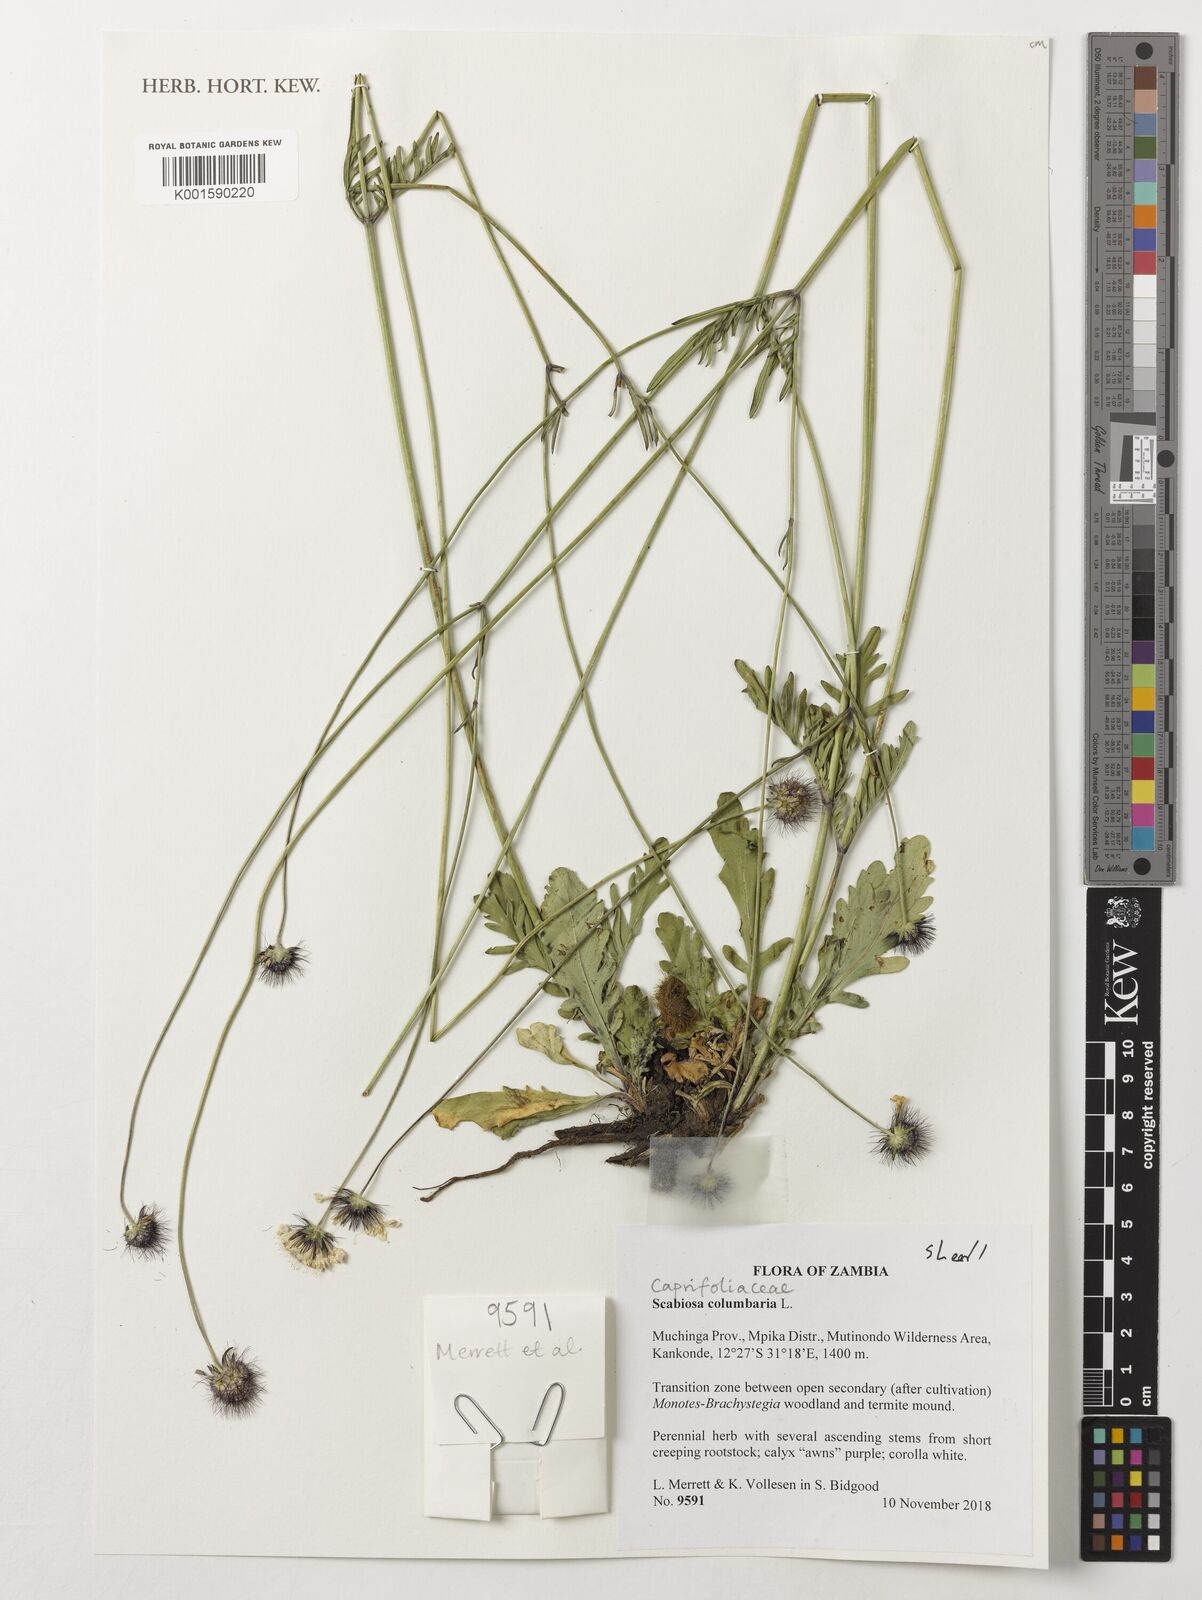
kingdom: Plantae
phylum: Tracheophyta
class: Magnoliopsida
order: Dipsacales
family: Caprifoliaceae
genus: Scabiosa
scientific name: Scabiosa columbaria
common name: Small scabious
